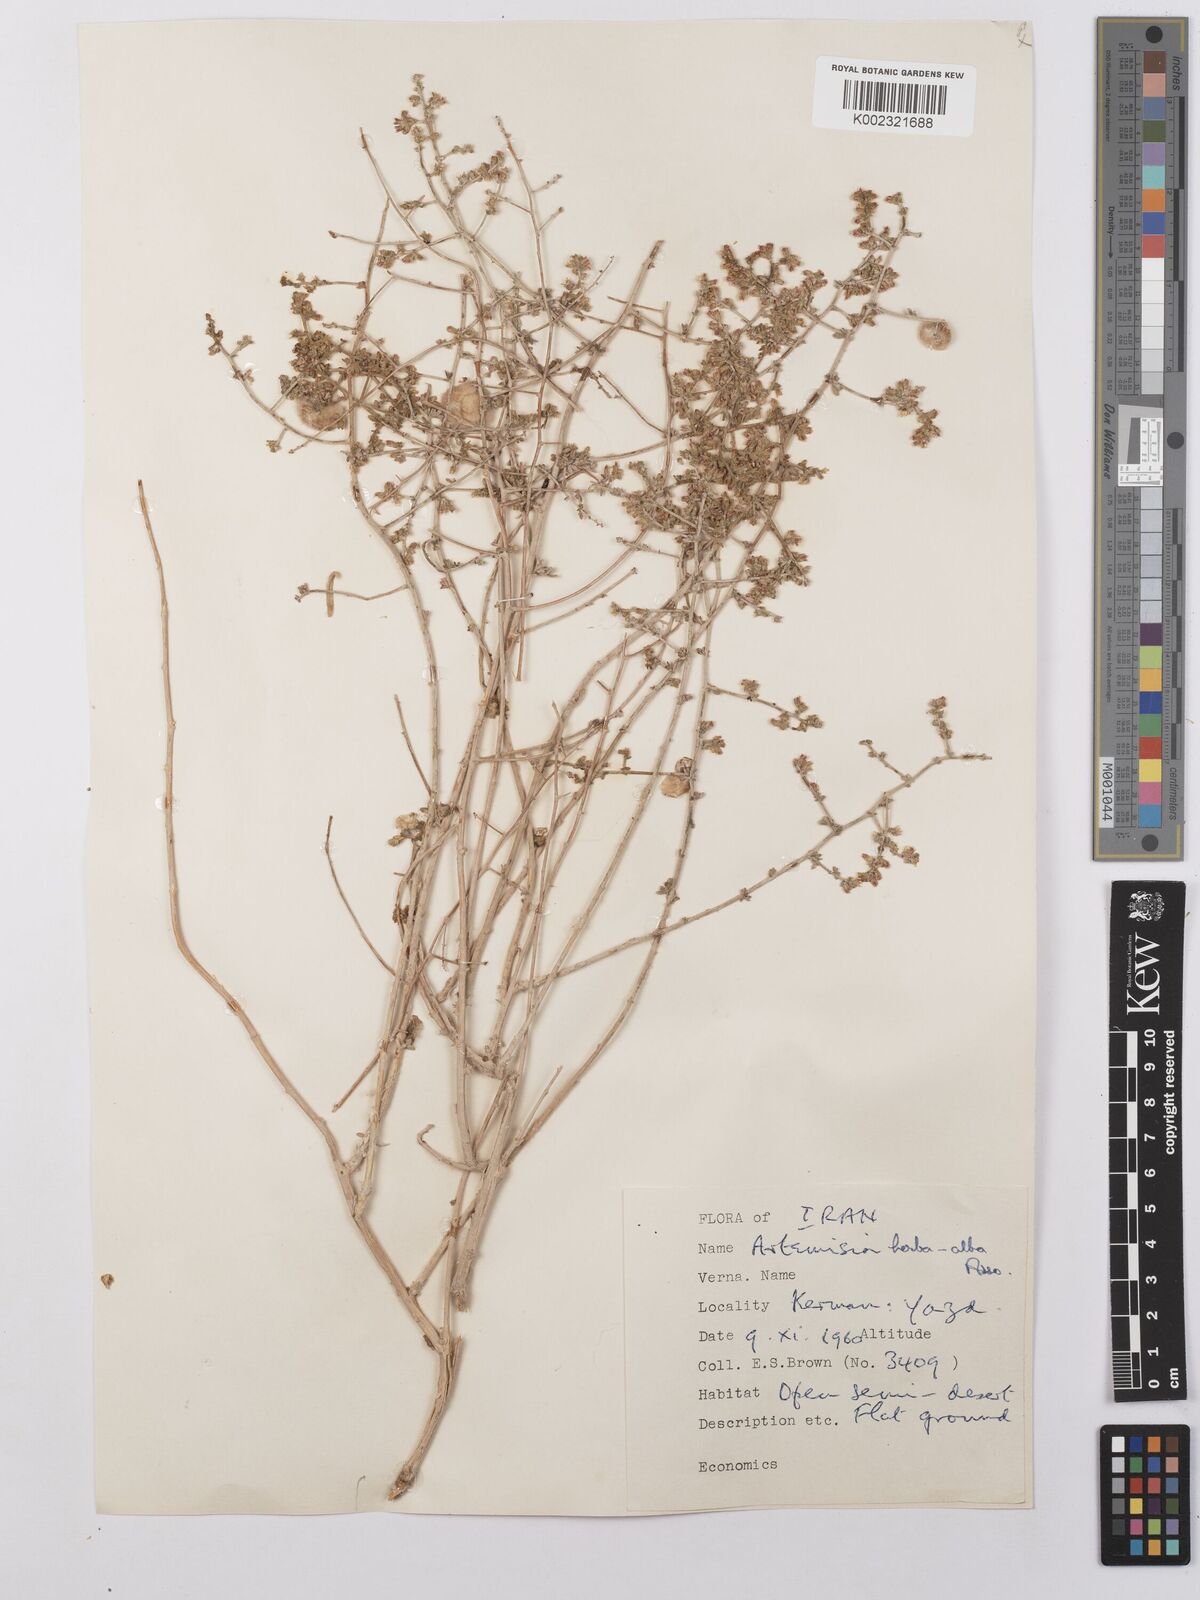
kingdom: Plantae
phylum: Tracheophyta
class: Magnoliopsida
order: Asterales
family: Asteraceae
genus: Artemisia
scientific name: Artemisia herba-alba
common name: White wormwood
